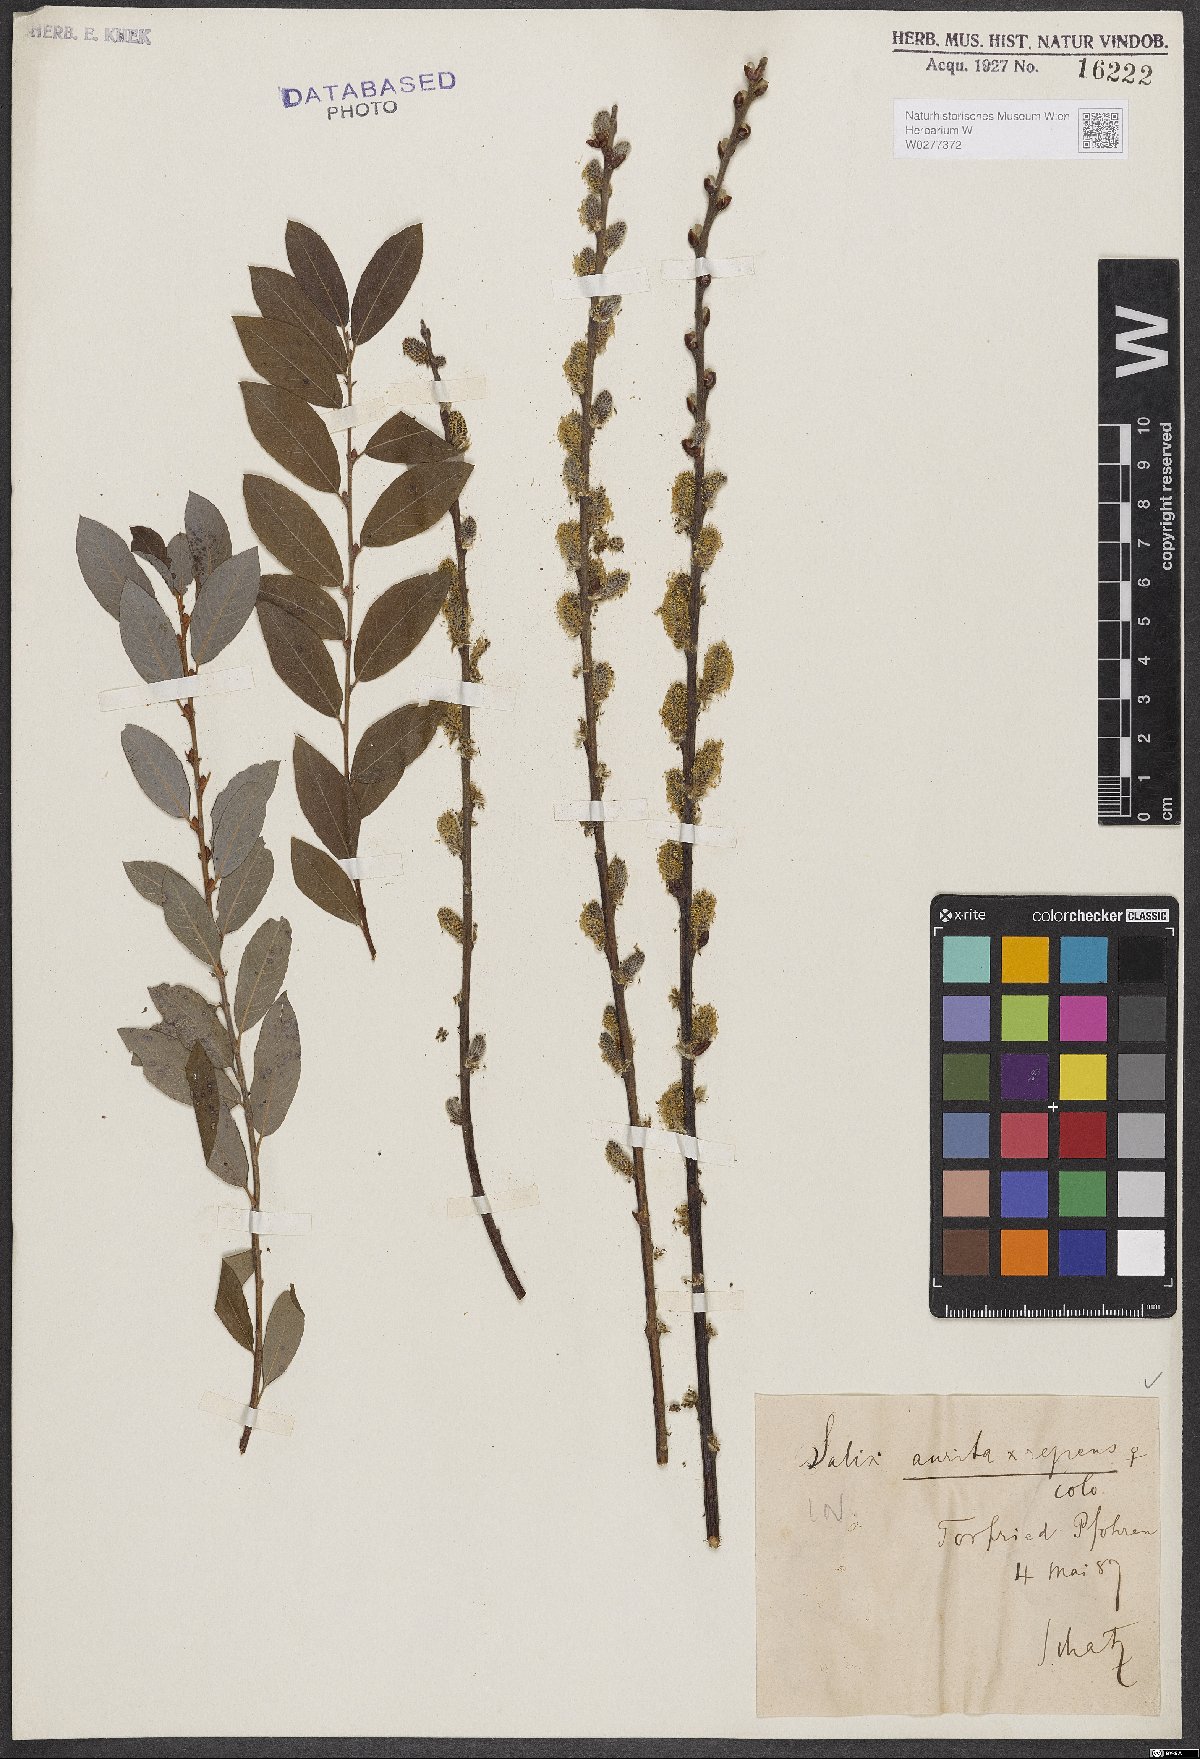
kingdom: Plantae
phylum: Tracheophyta
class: Magnoliopsida
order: Malpighiales
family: Salicaceae
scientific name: Salicaceae
